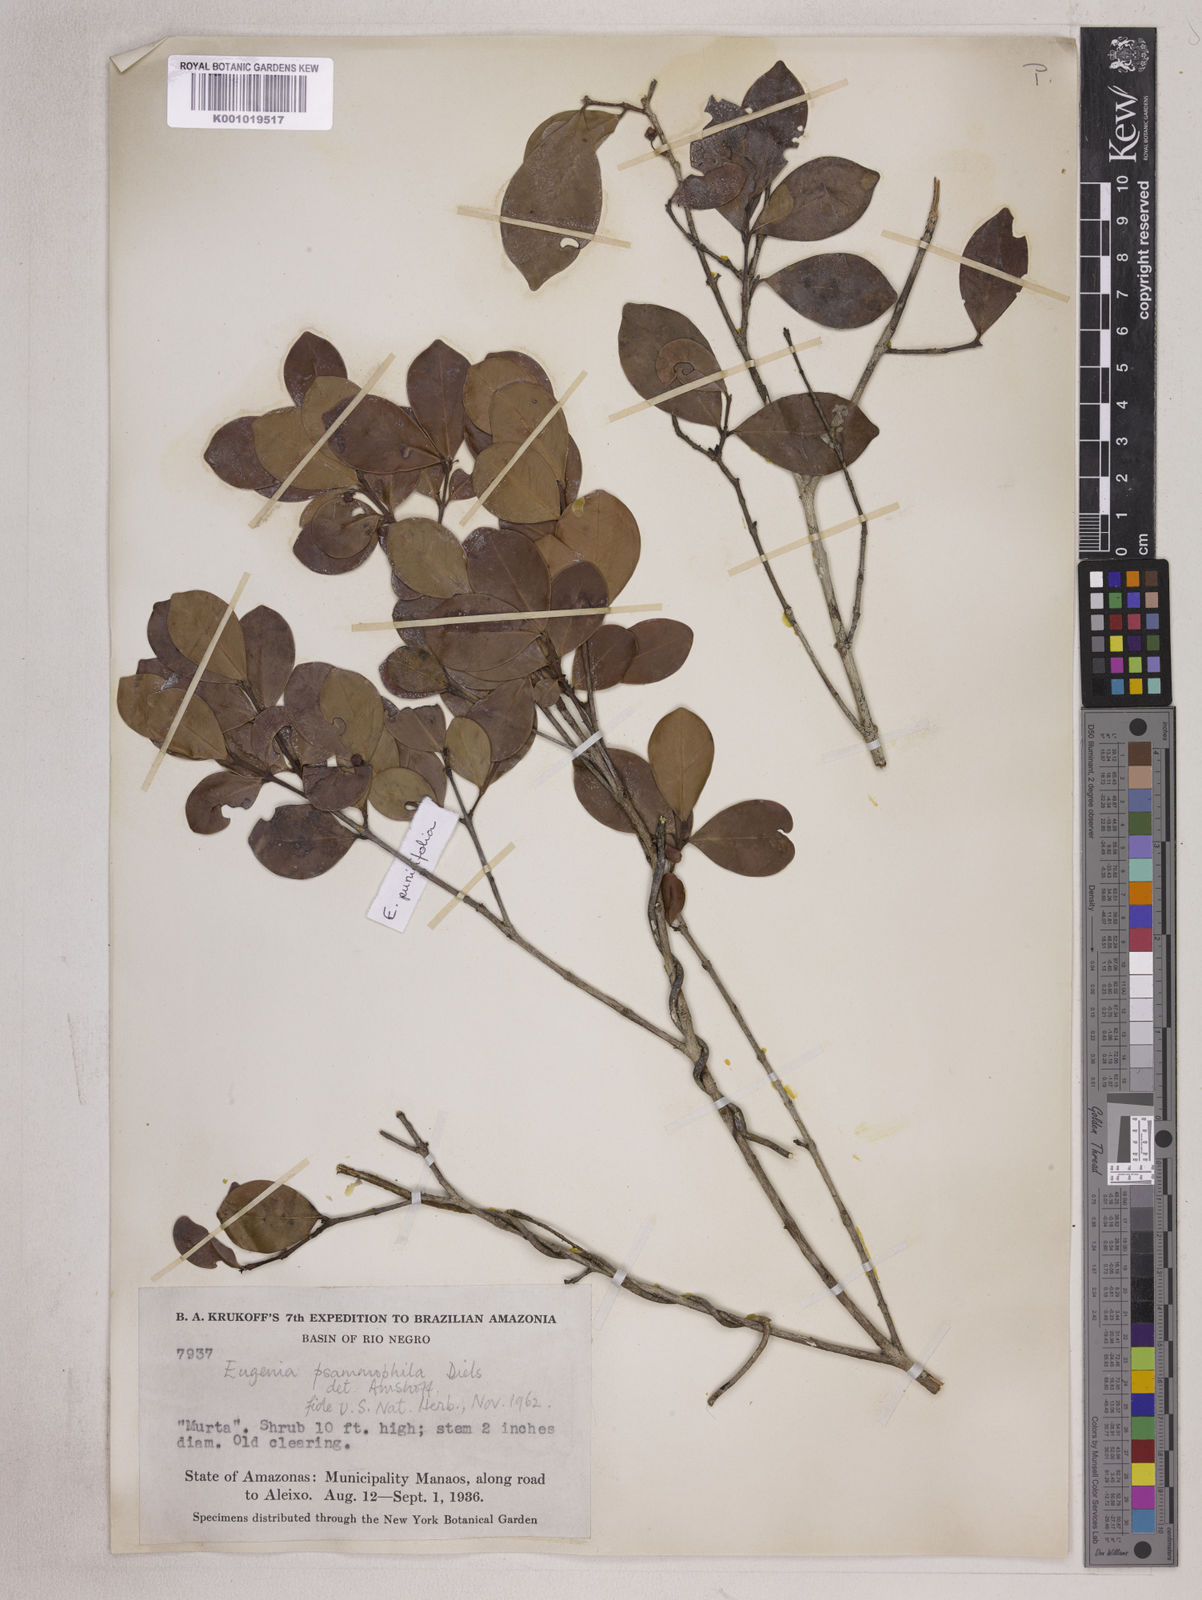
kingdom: Plantae
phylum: Tracheophyta
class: Magnoliopsida
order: Myrtales
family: Myrtaceae
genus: Eugenia
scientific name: Eugenia punicifolia
